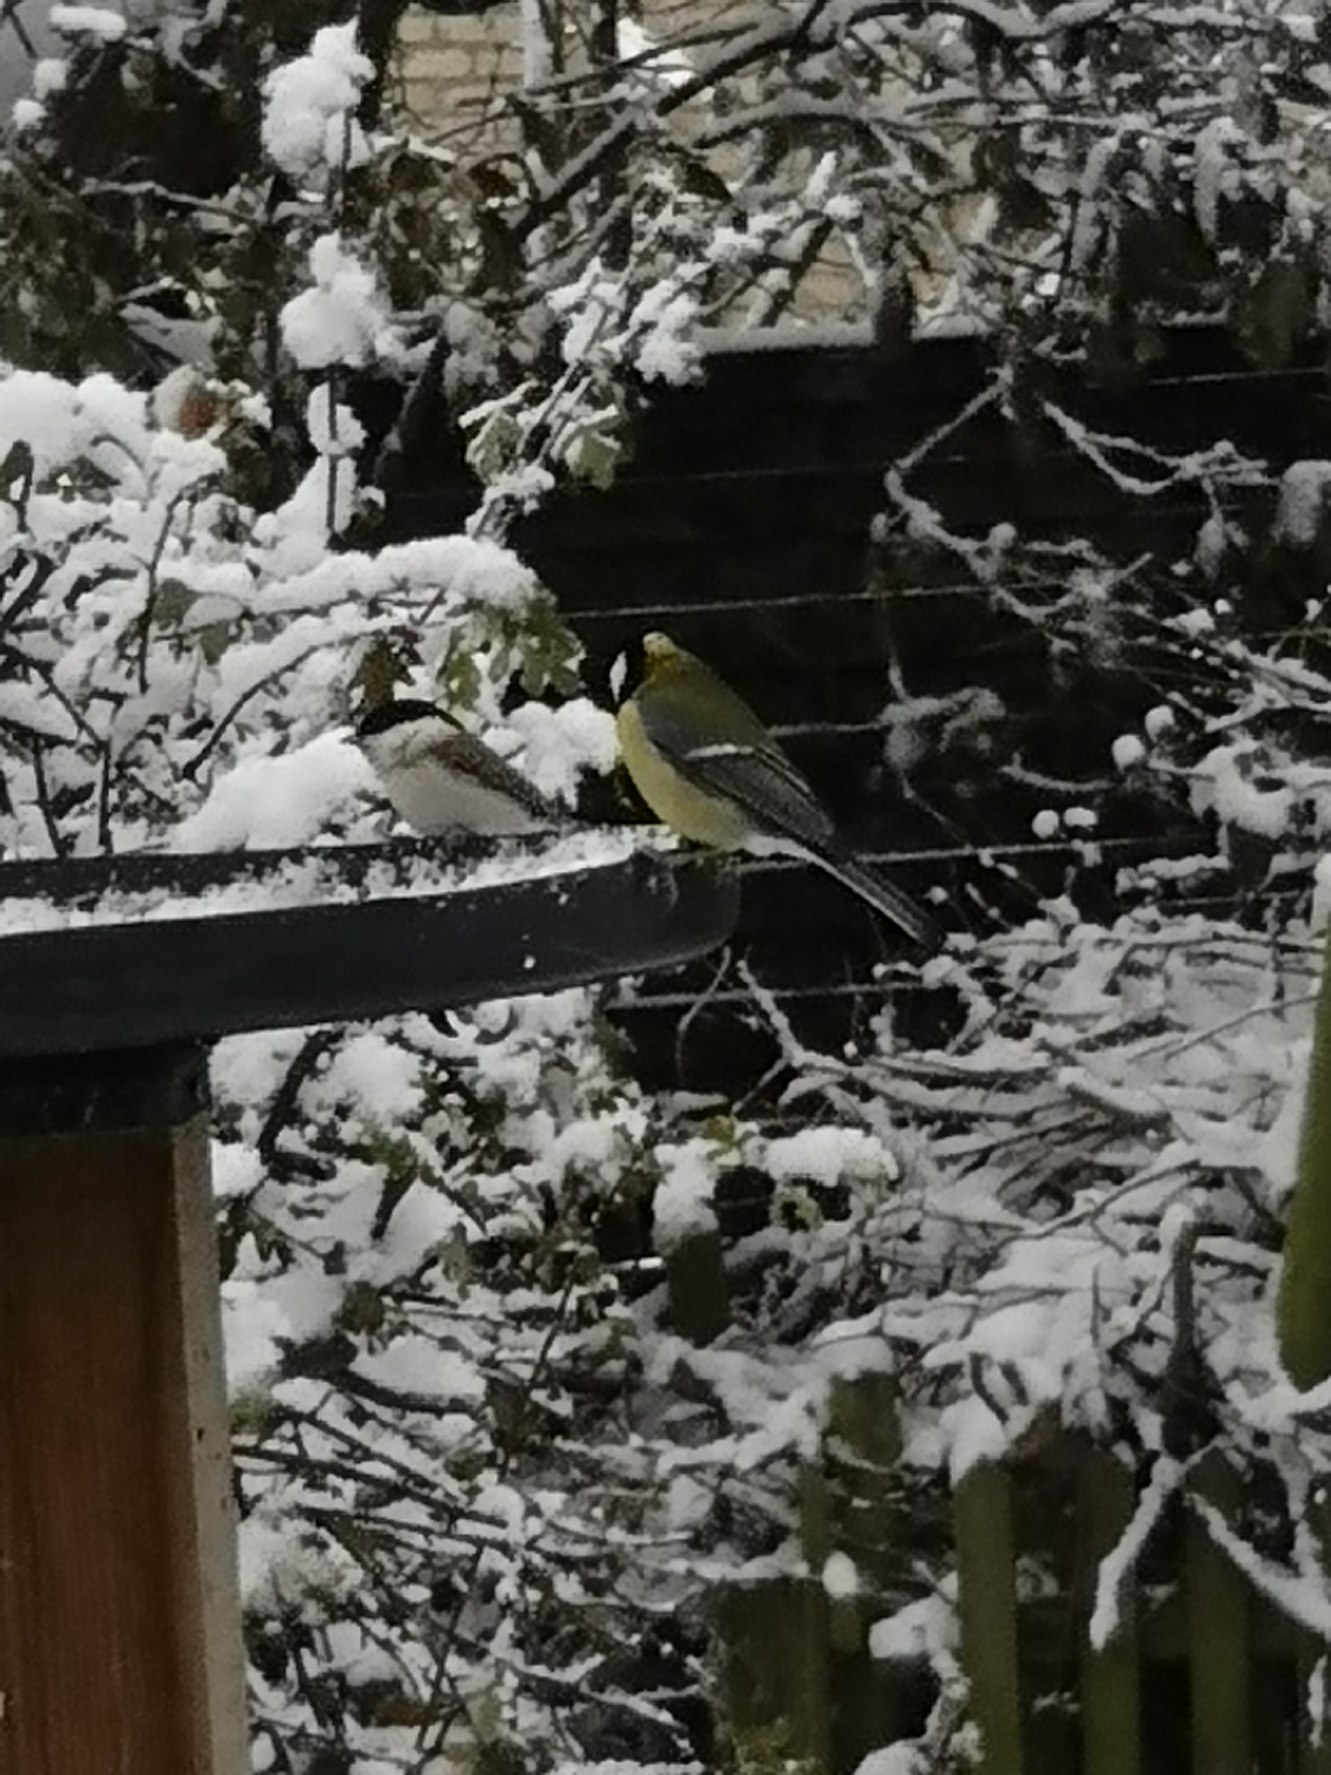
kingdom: Animalia
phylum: Chordata
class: Aves
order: Passeriformes
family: Paridae
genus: Poecile
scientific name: Poecile palustris
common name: Sumpmejse
